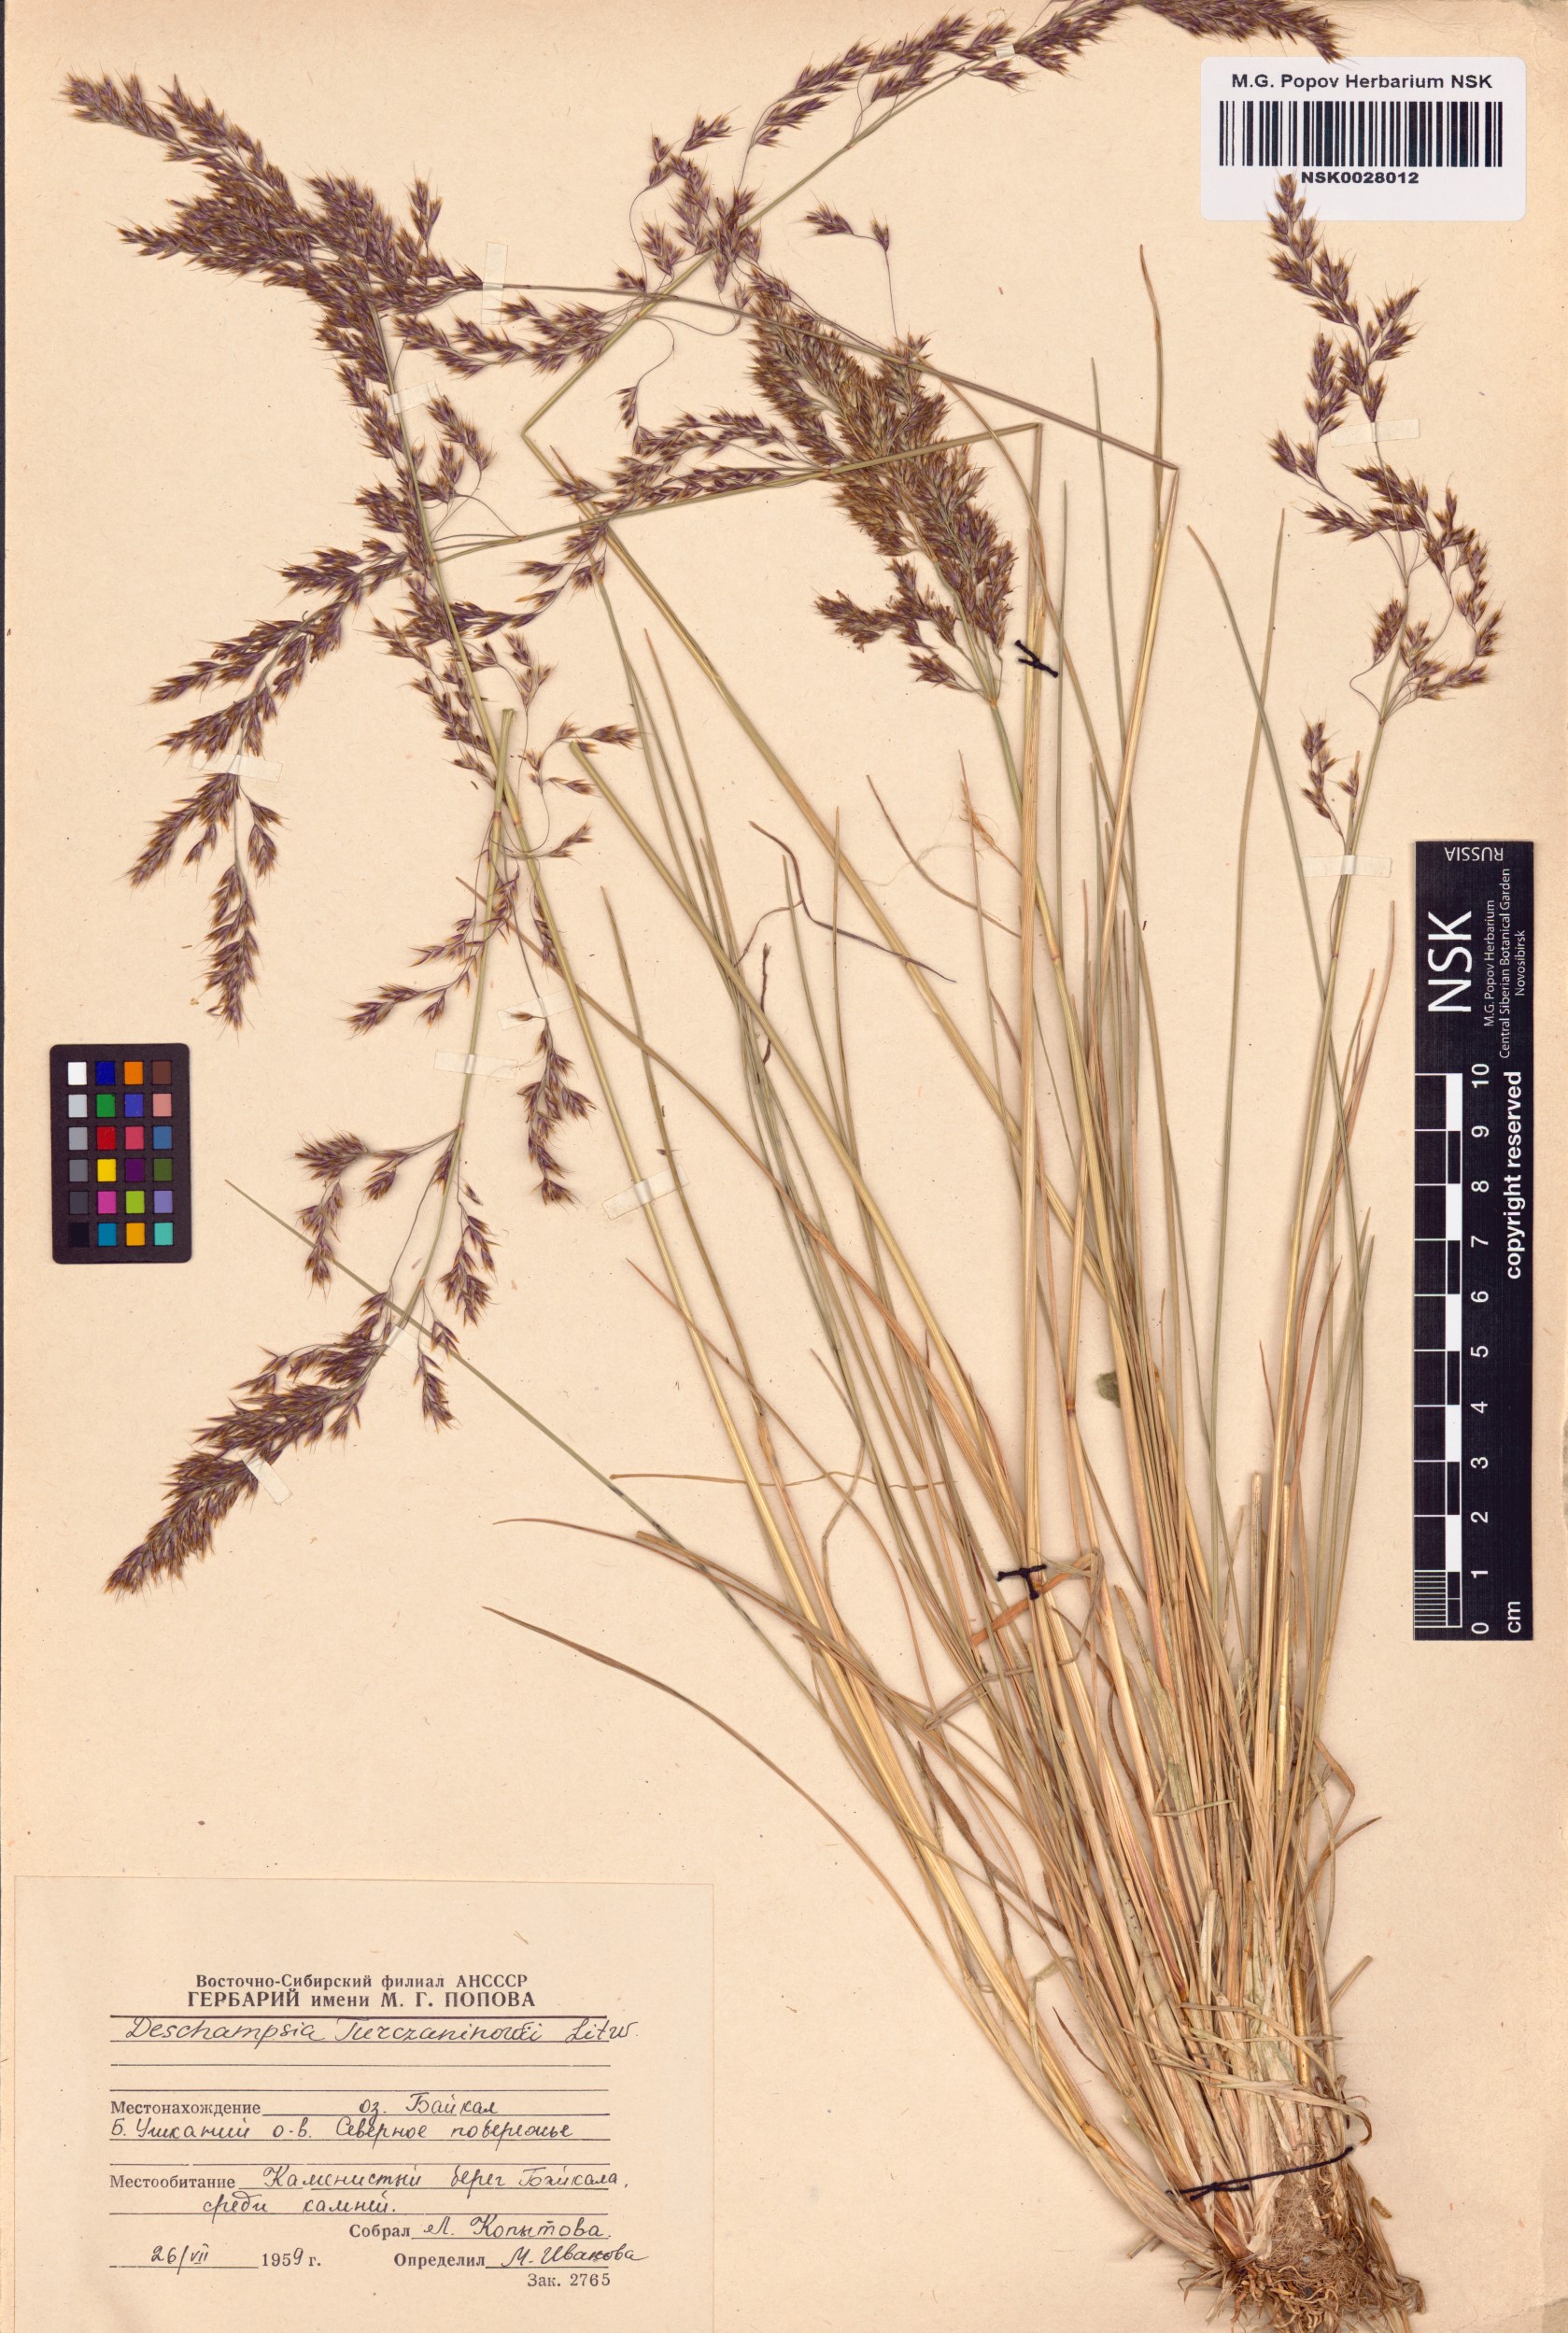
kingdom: Plantae
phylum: Tracheophyta
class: Liliopsida
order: Poales
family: Poaceae
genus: Deschampsia
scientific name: Deschampsia cespitosa
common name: Tufted hair-grass
